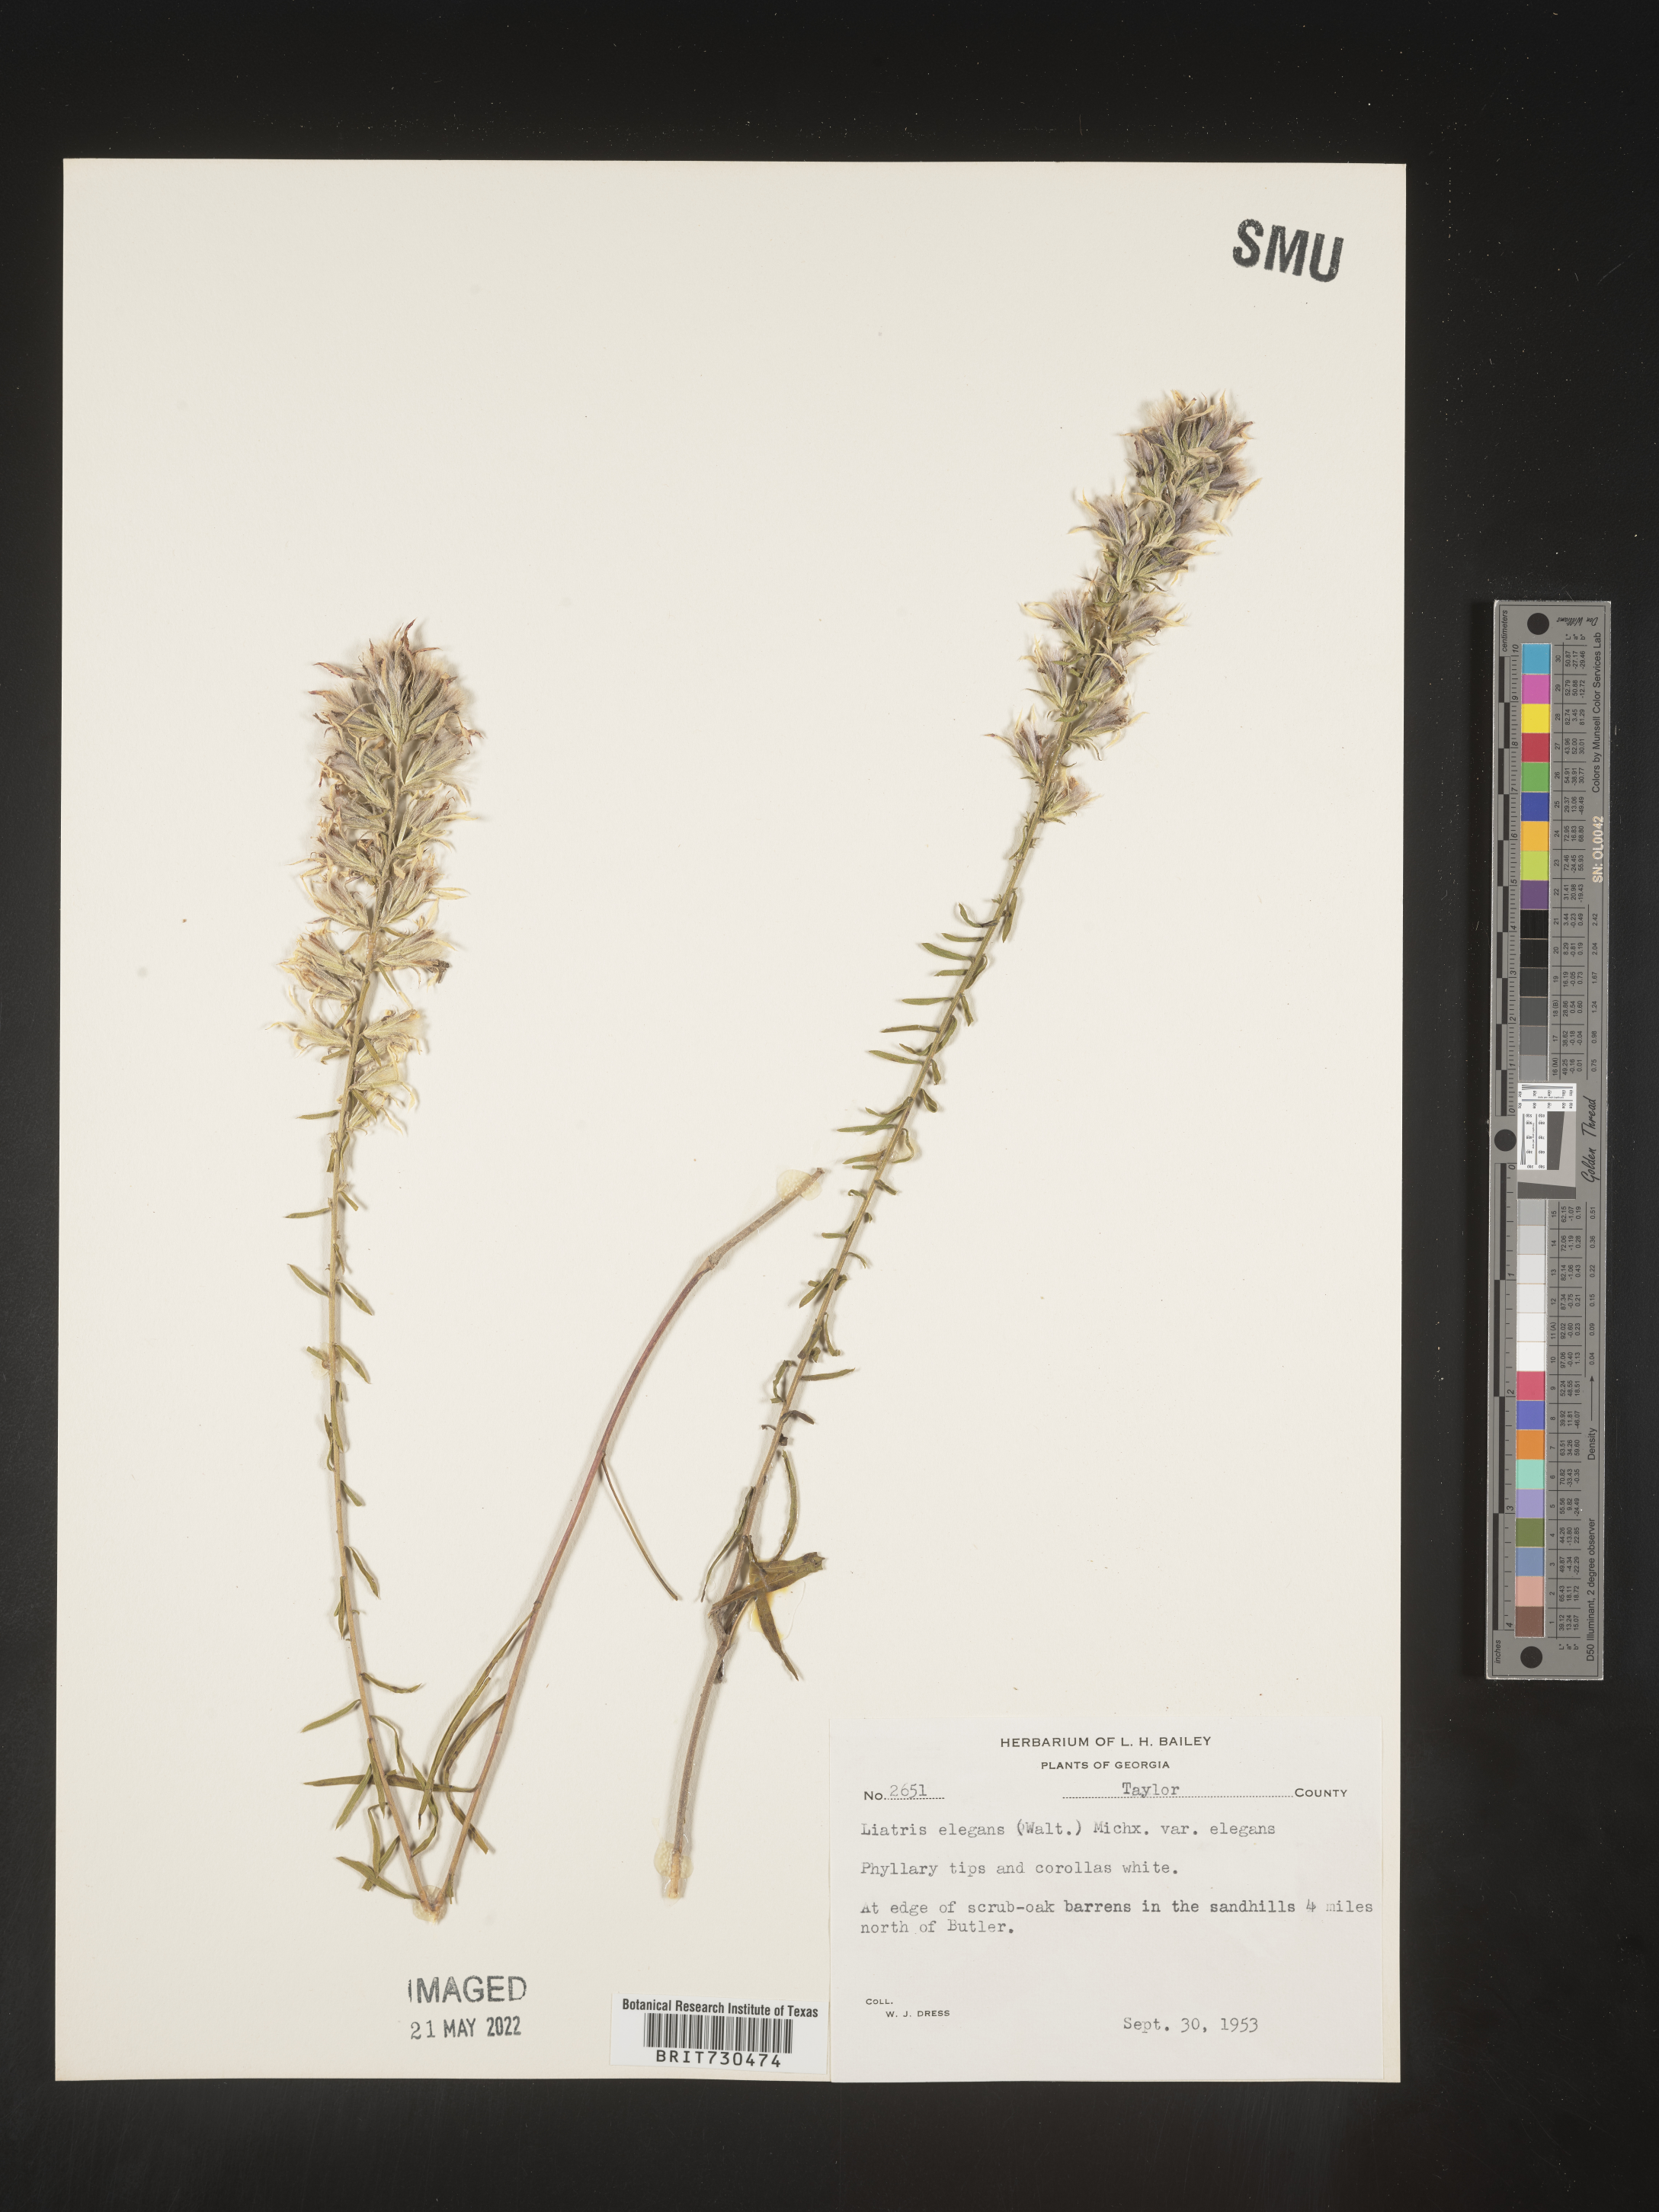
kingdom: Plantae
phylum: Tracheophyta
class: Magnoliopsida
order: Asterales
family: Asteraceae
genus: Liatris
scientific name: Liatris elegans
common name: Pinkscale gayfeather
